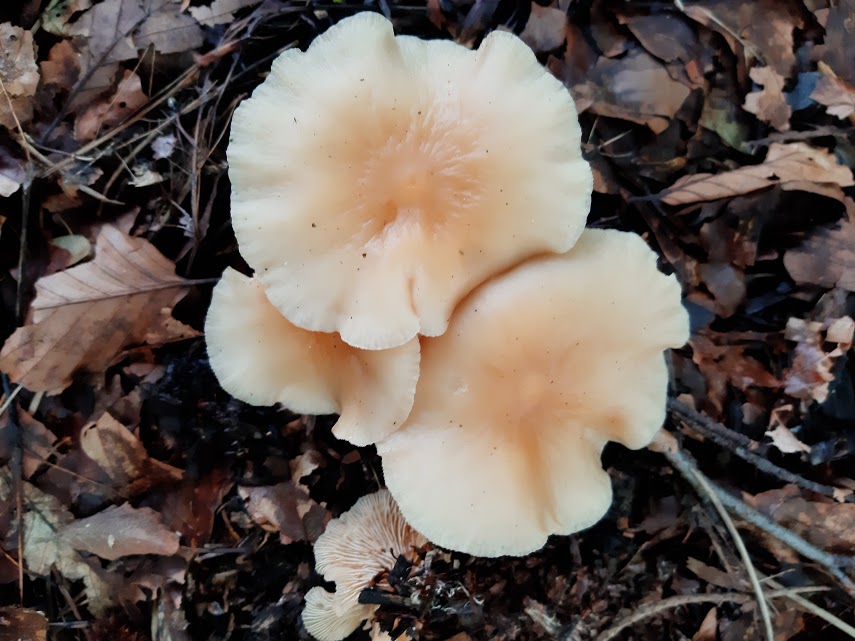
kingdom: Fungi
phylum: Basidiomycota
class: Agaricomycetes
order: Agaricales
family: Omphalotaceae
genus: Gymnopus
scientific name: Gymnopus
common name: fladhat
